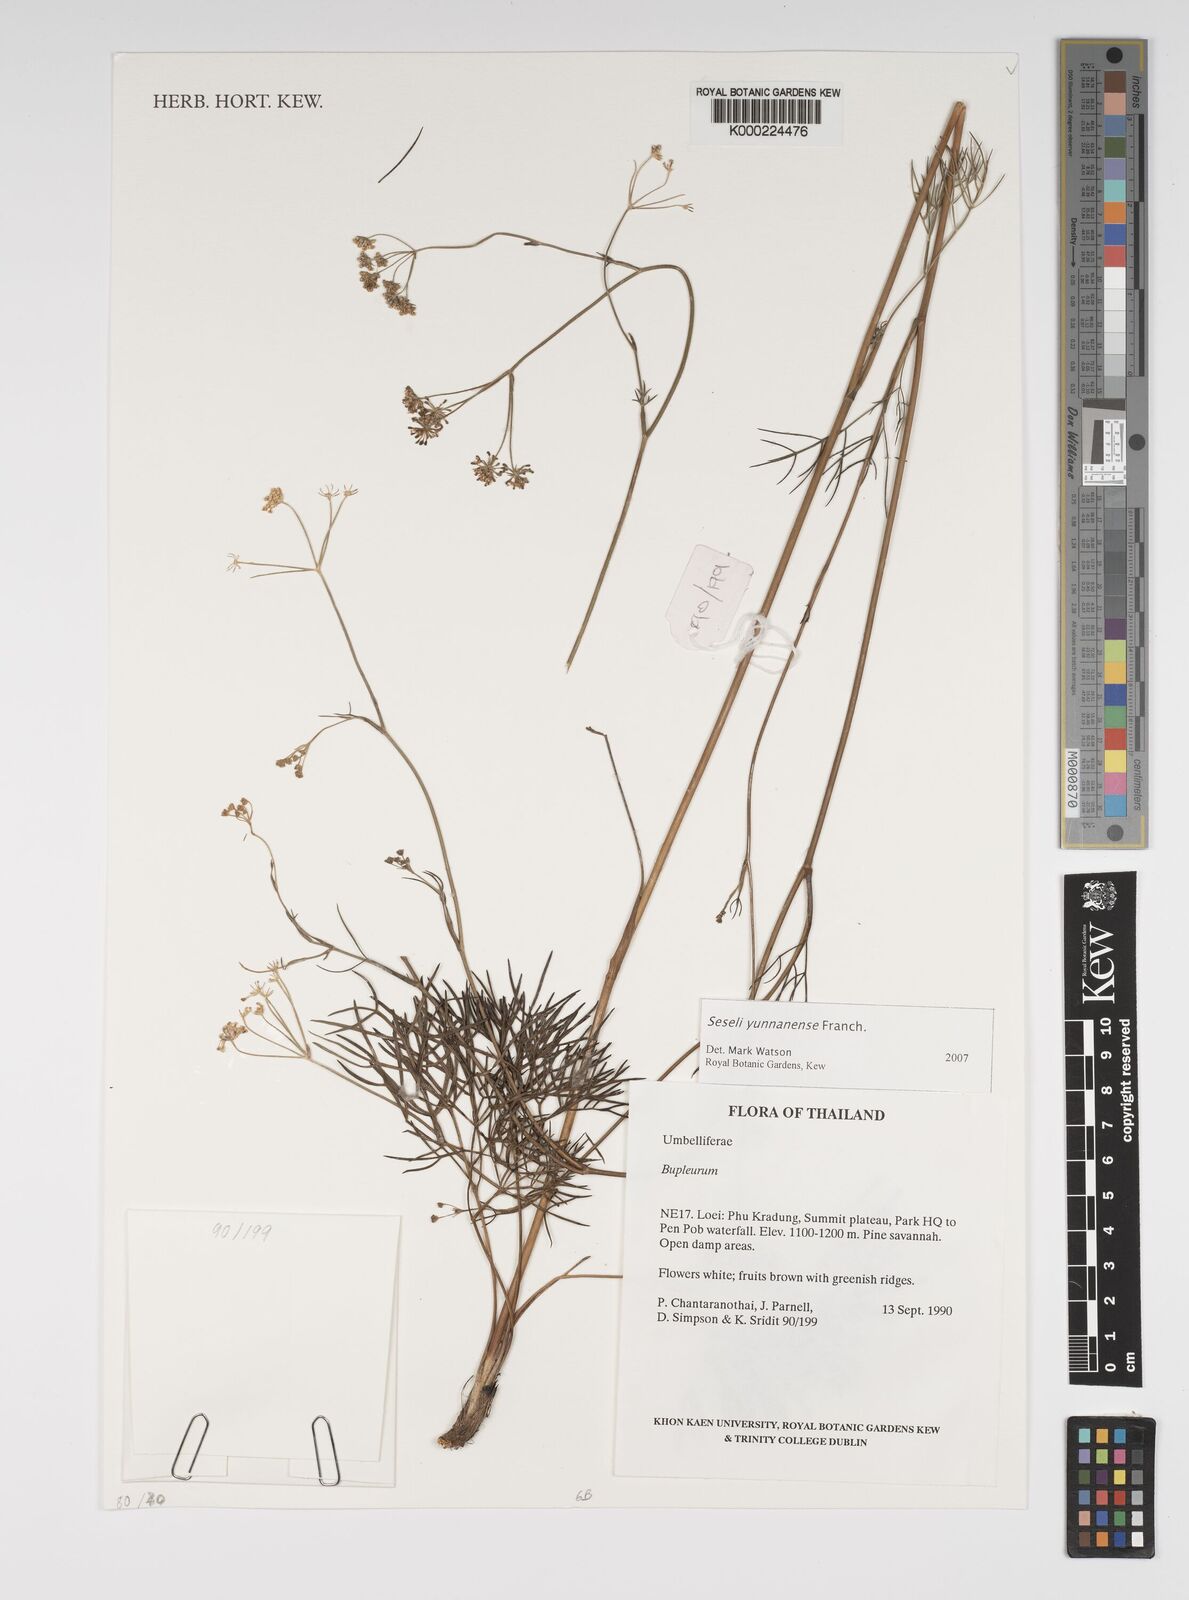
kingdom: Plantae
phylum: Tracheophyta
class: Magnoliopsida
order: Apiales
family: Apiaceae
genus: Seseli
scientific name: Seseli yunnanense
